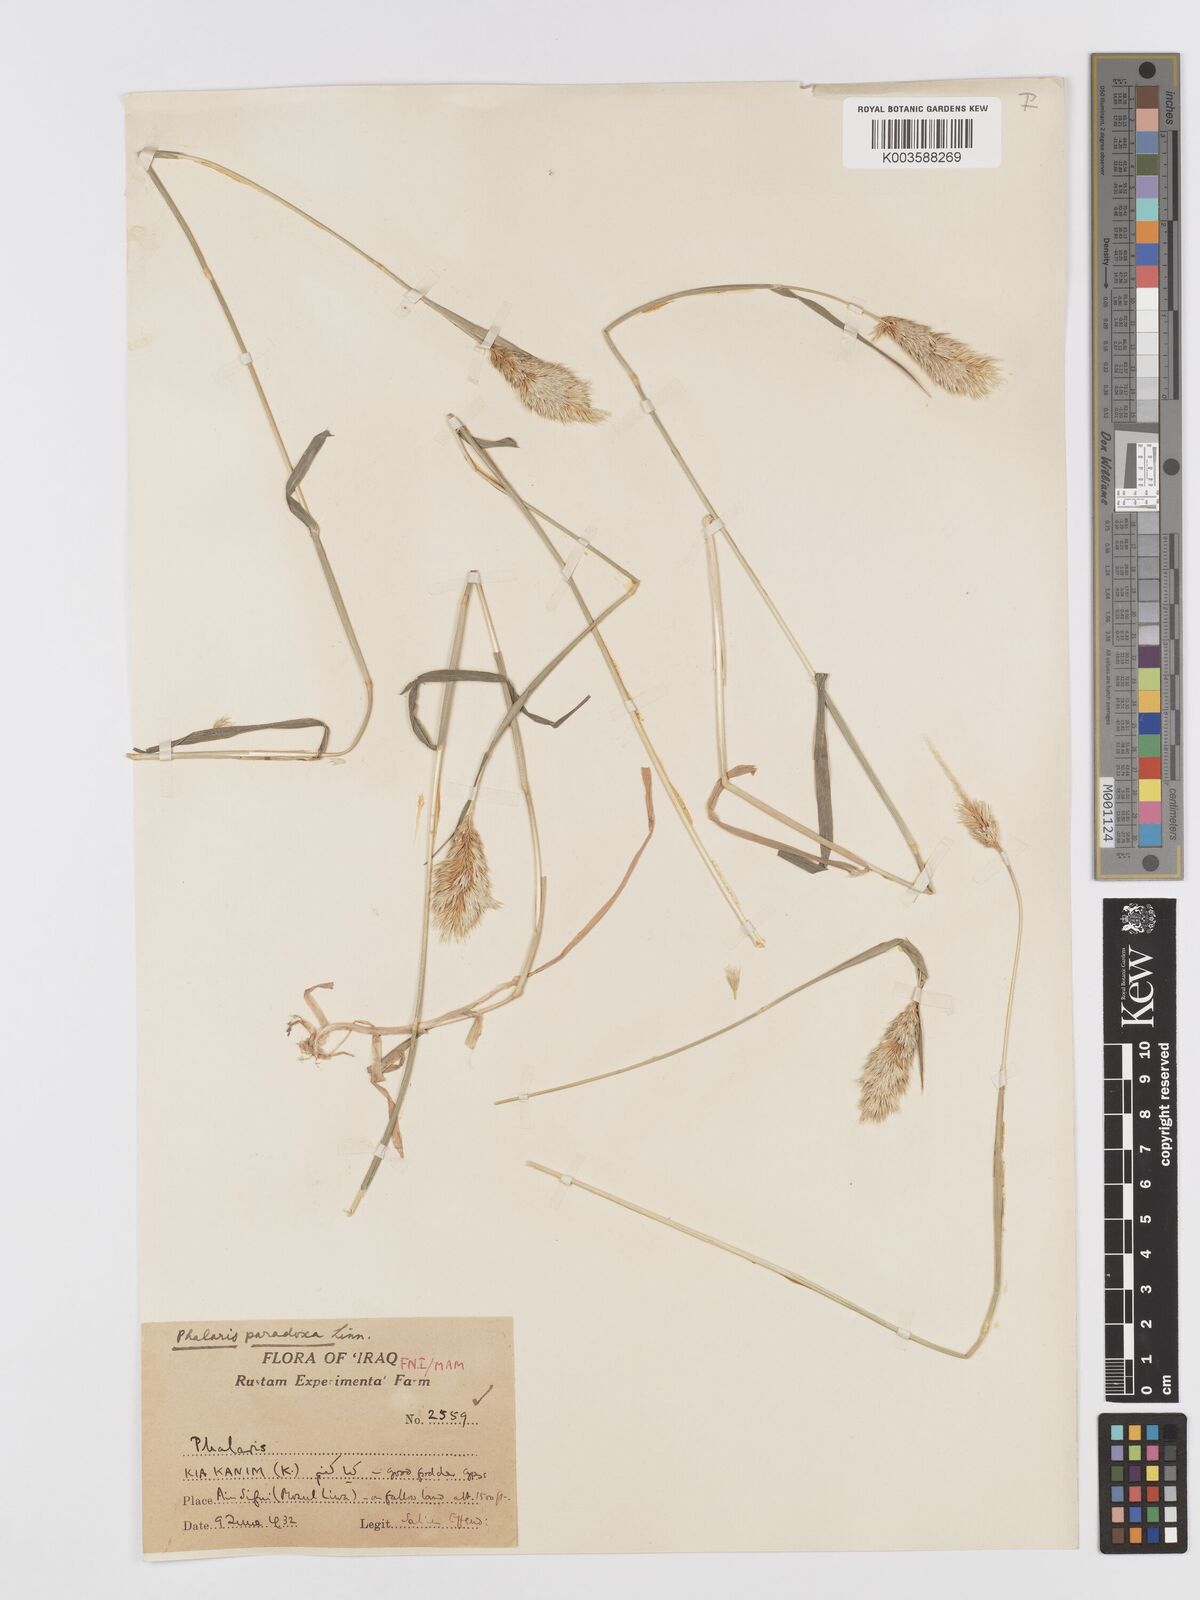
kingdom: Plantae
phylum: Tracheophyta
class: Liliopsida
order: Poales
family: Poaceae
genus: Phalaris
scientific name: Phalaris paradoxa
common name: Awned canary-grass
